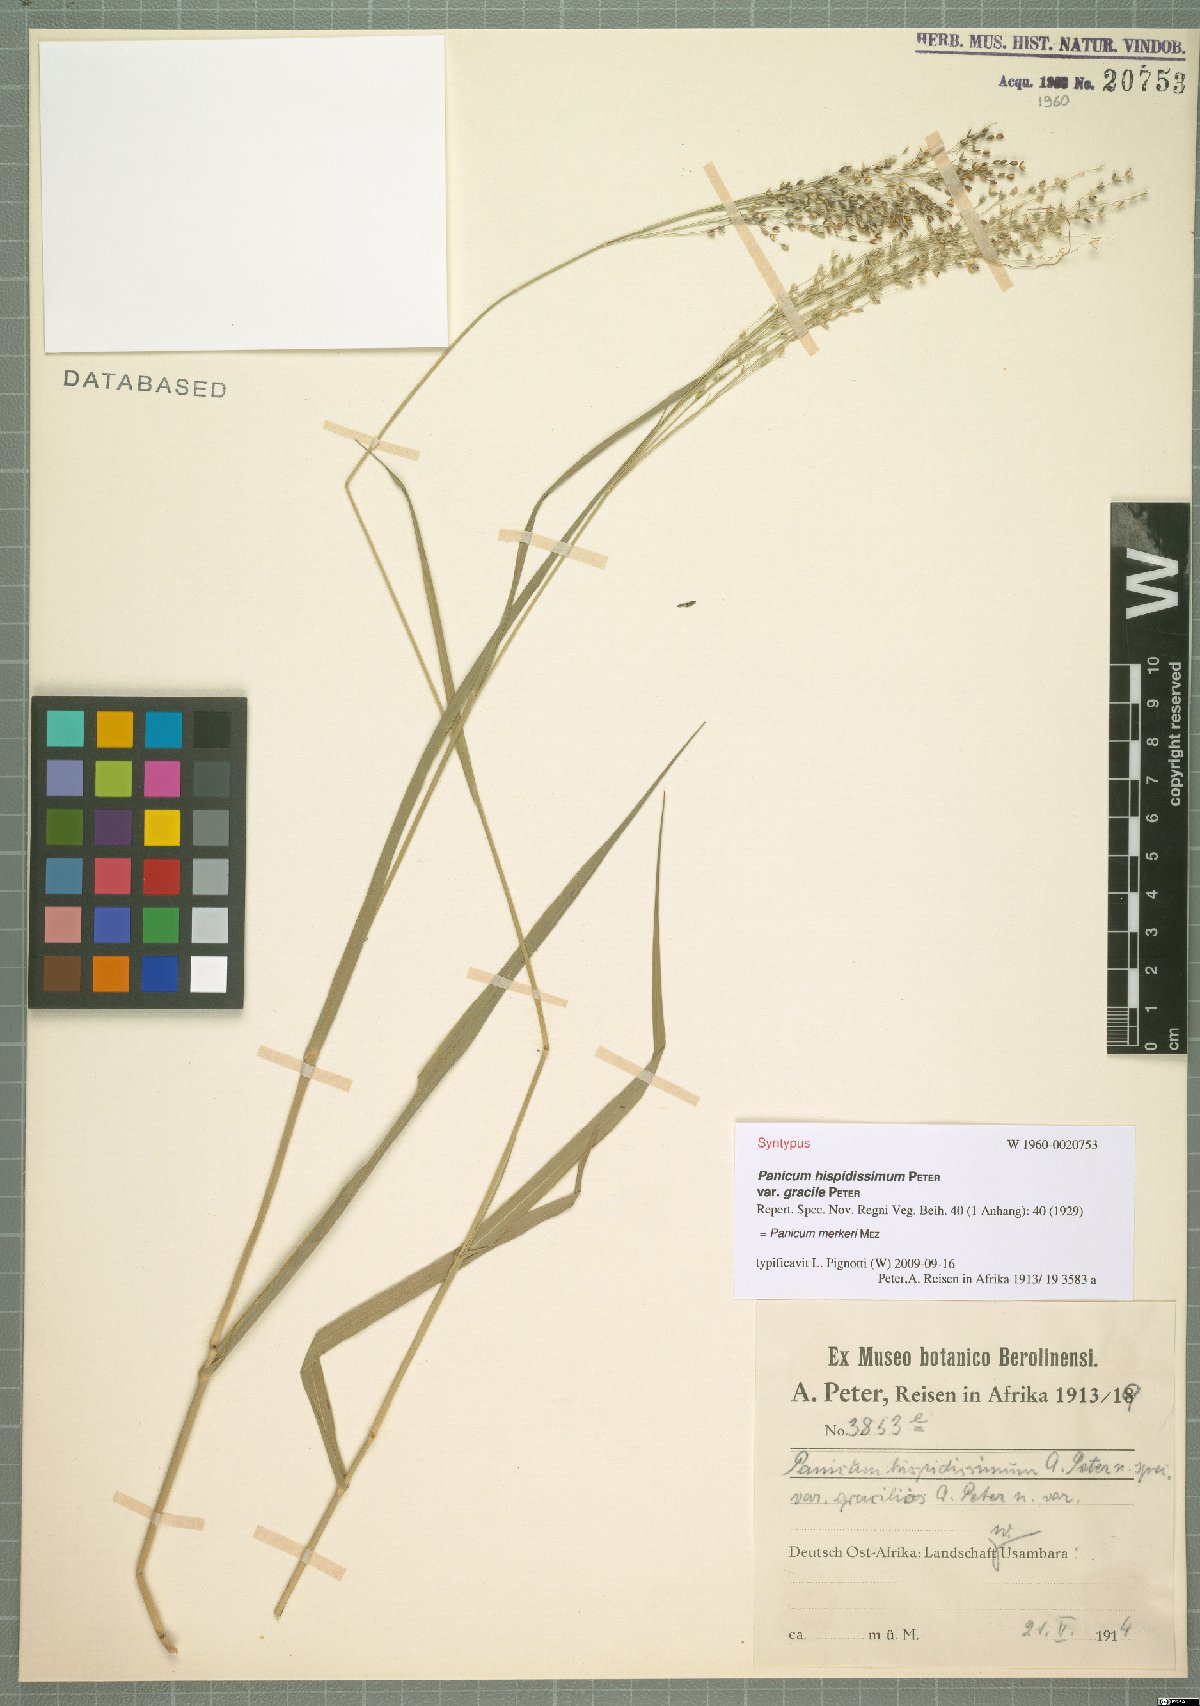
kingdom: Plantae
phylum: Tracheophyta
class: Liliopsida
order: Poales
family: Poaceae
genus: Panicum
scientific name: Panicum merkeri
